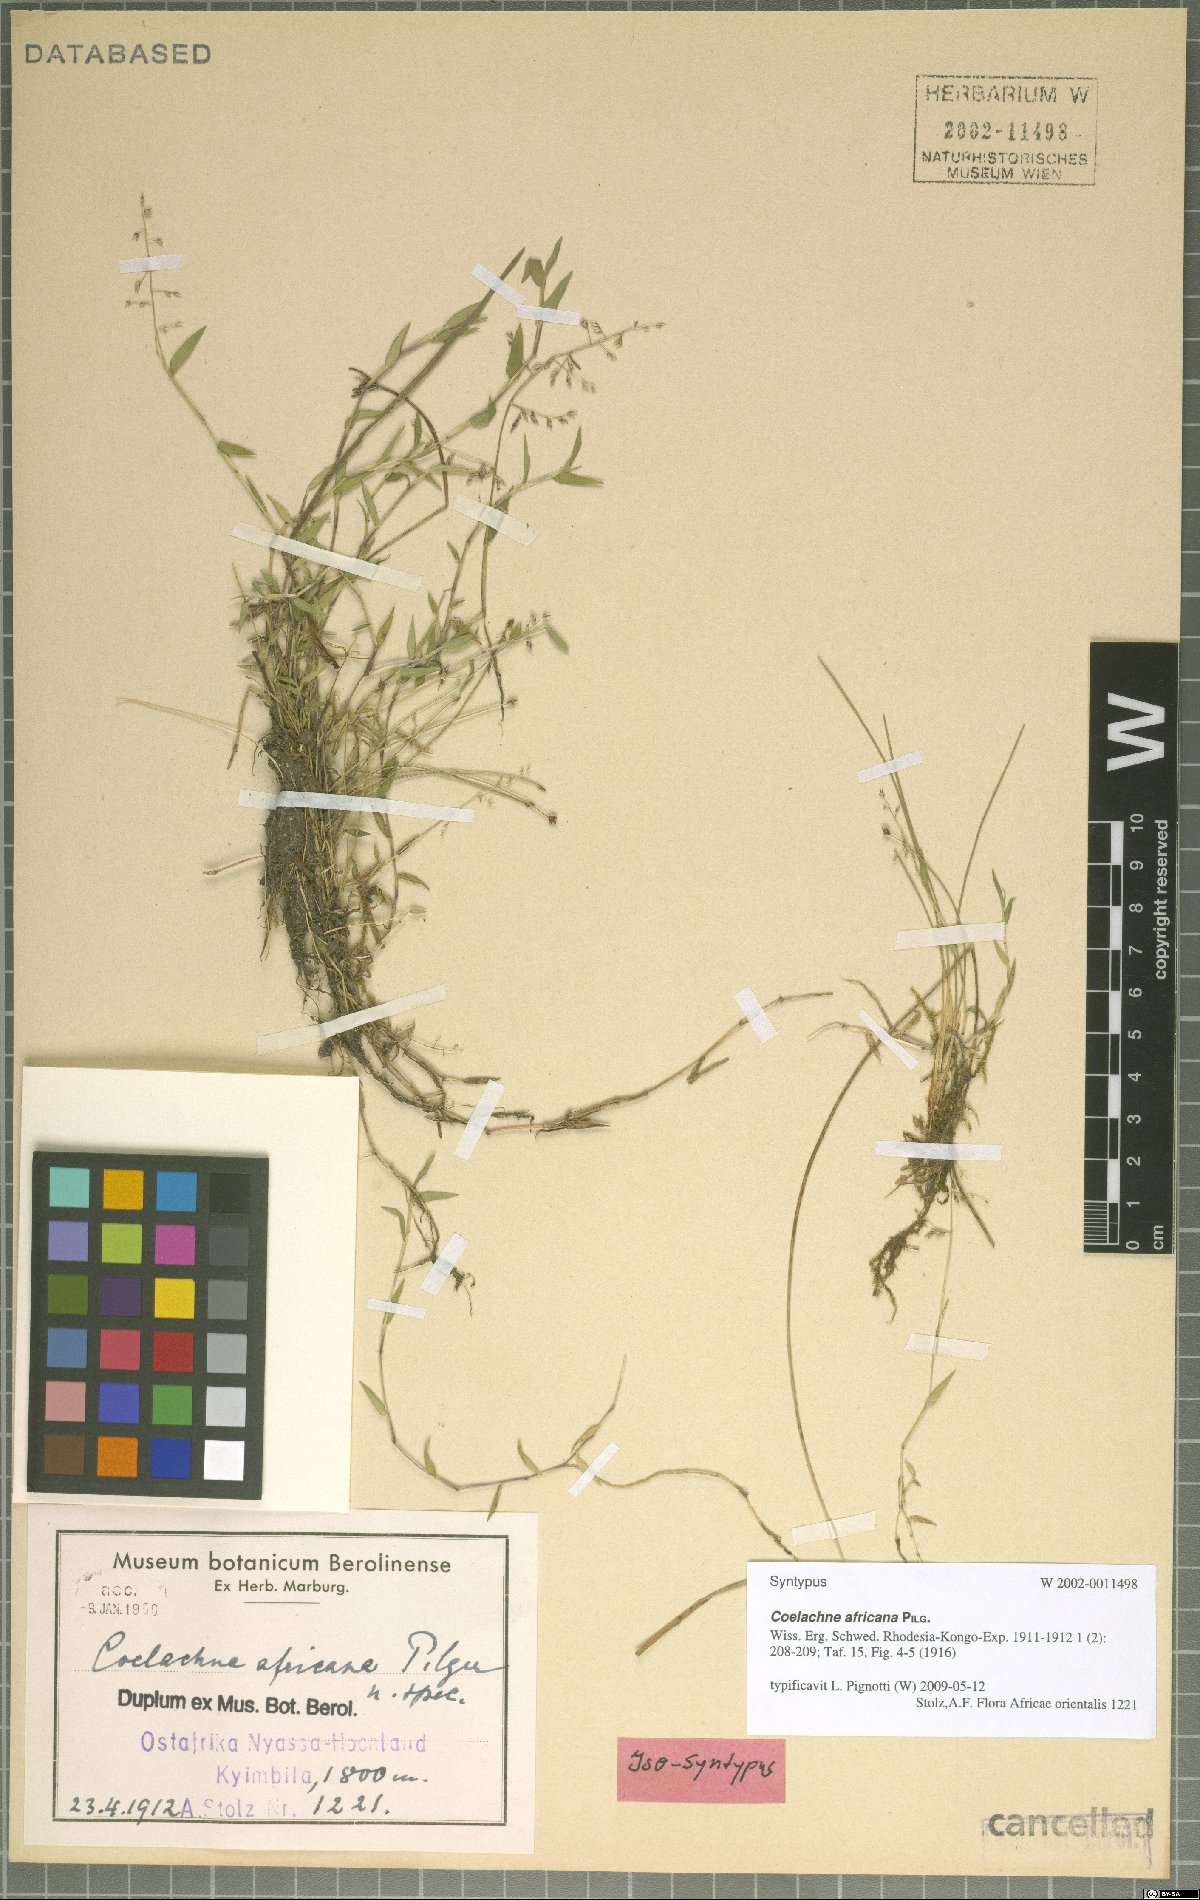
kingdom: Plantae
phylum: Tracheophyta
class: Liliopsida
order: Poales
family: Poaceae
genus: Coelachne
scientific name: Coelachne africana
